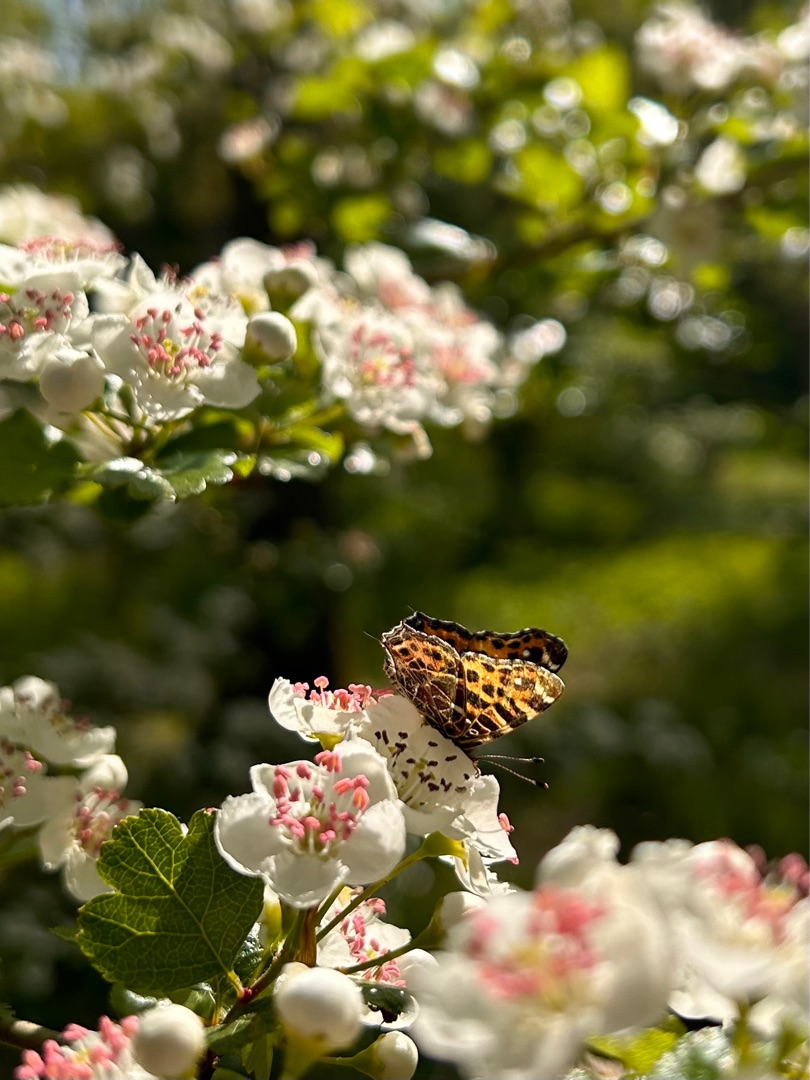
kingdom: Animalia
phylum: Arthropoda
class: Insecta
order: Lepidoptera
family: Nymphalidae
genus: Araschnia
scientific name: Araschnia levana
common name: Nældesommerfugl
